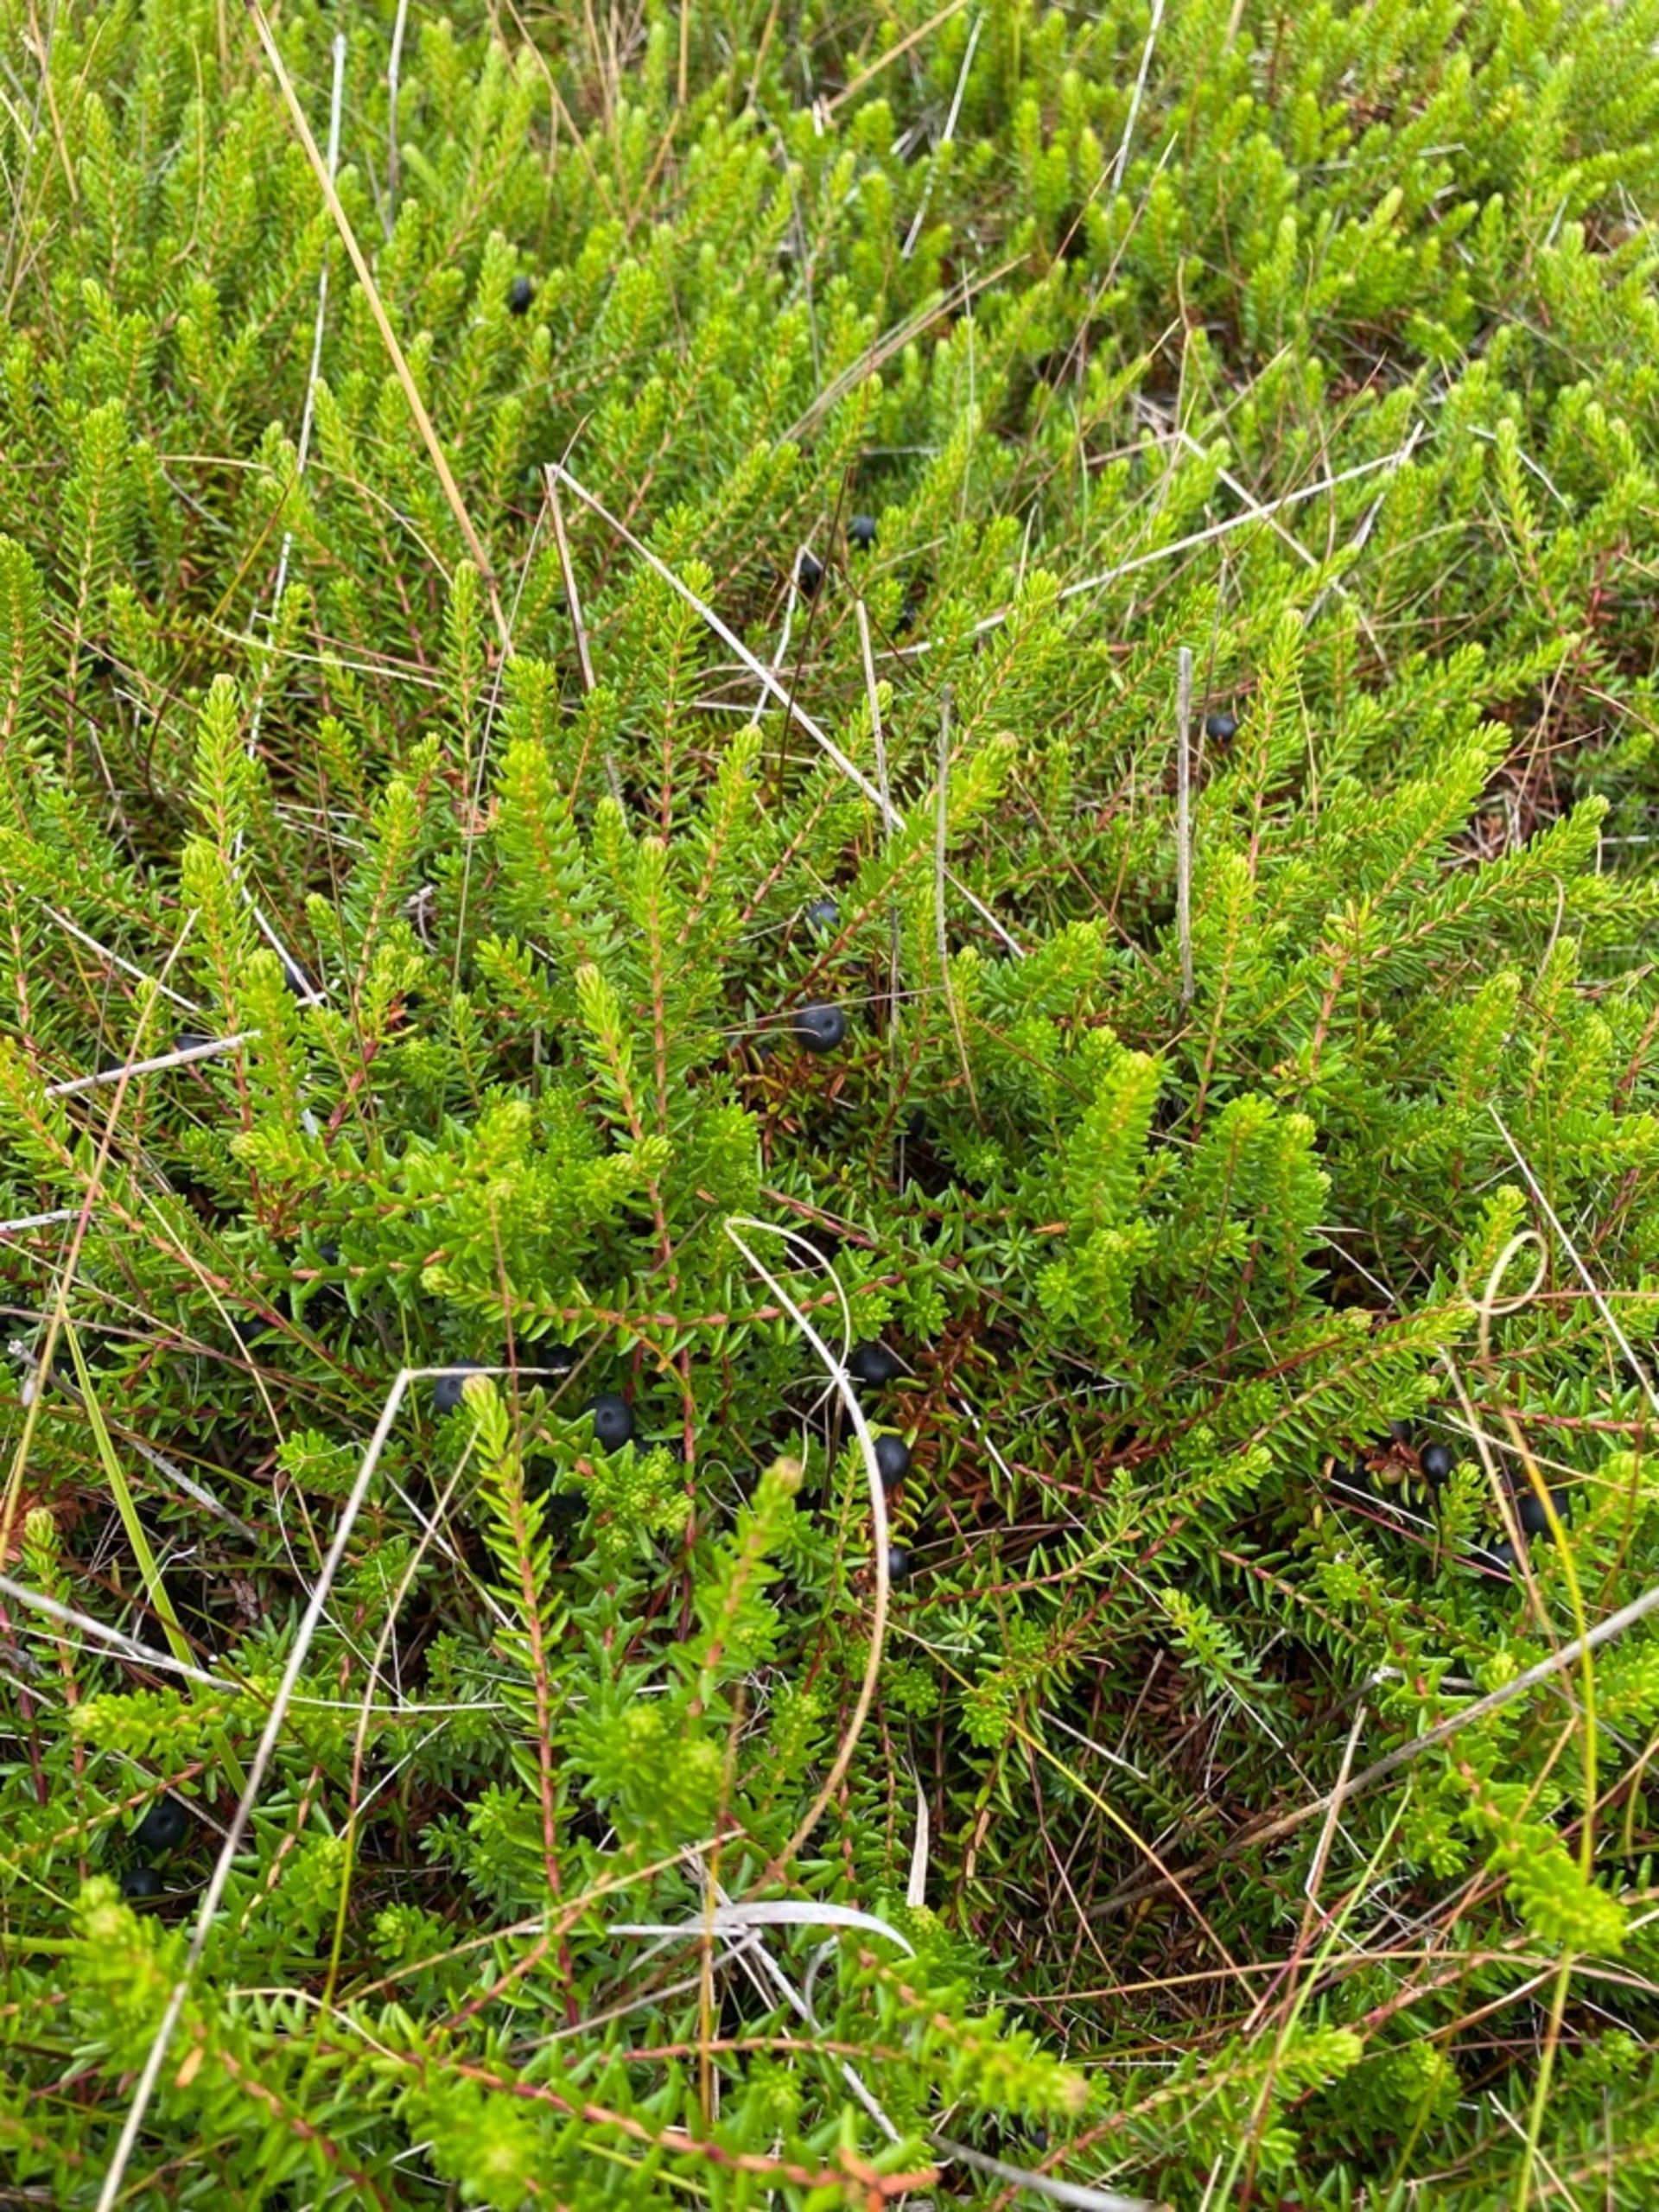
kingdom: Plantae
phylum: Tracheophyta
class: Magnoliopsida
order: Ericales
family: Ericaceae
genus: Empetrum
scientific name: Empetrum nigrum
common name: Revling
